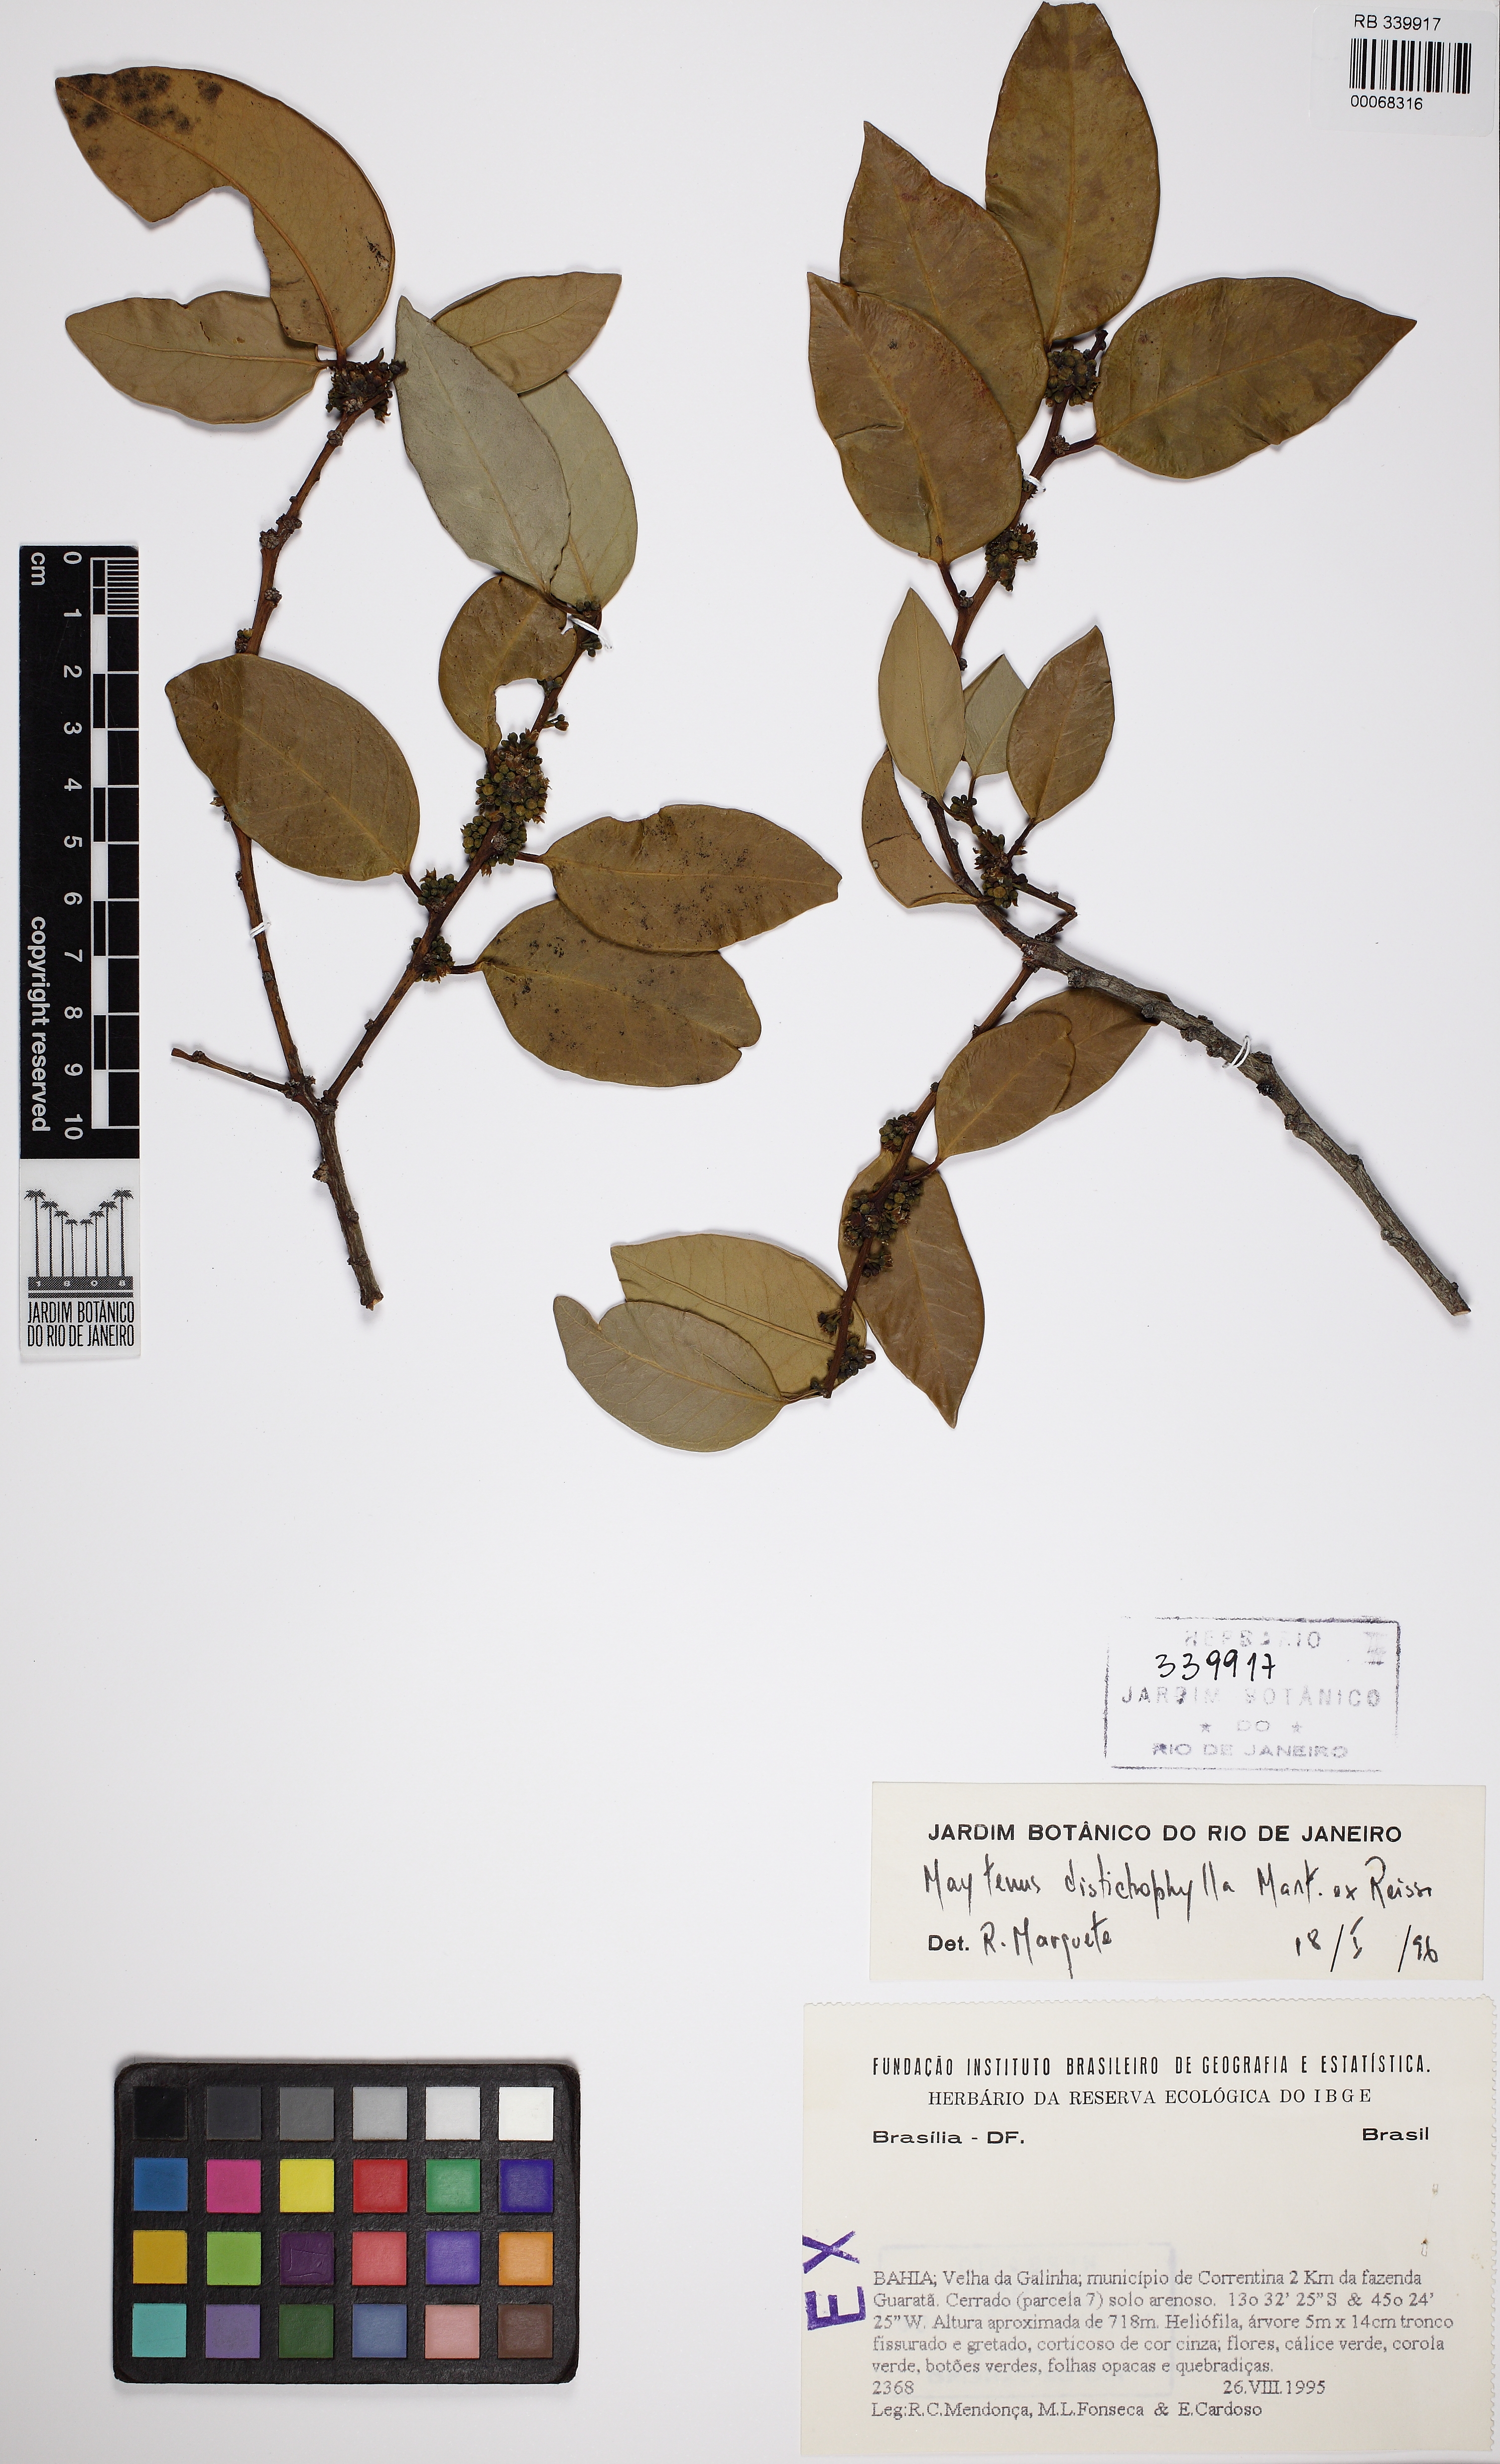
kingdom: Plantae
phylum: Tracheophyta
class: Magnoliopsida
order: Santalales
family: Olacaceae
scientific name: Olacaceae
